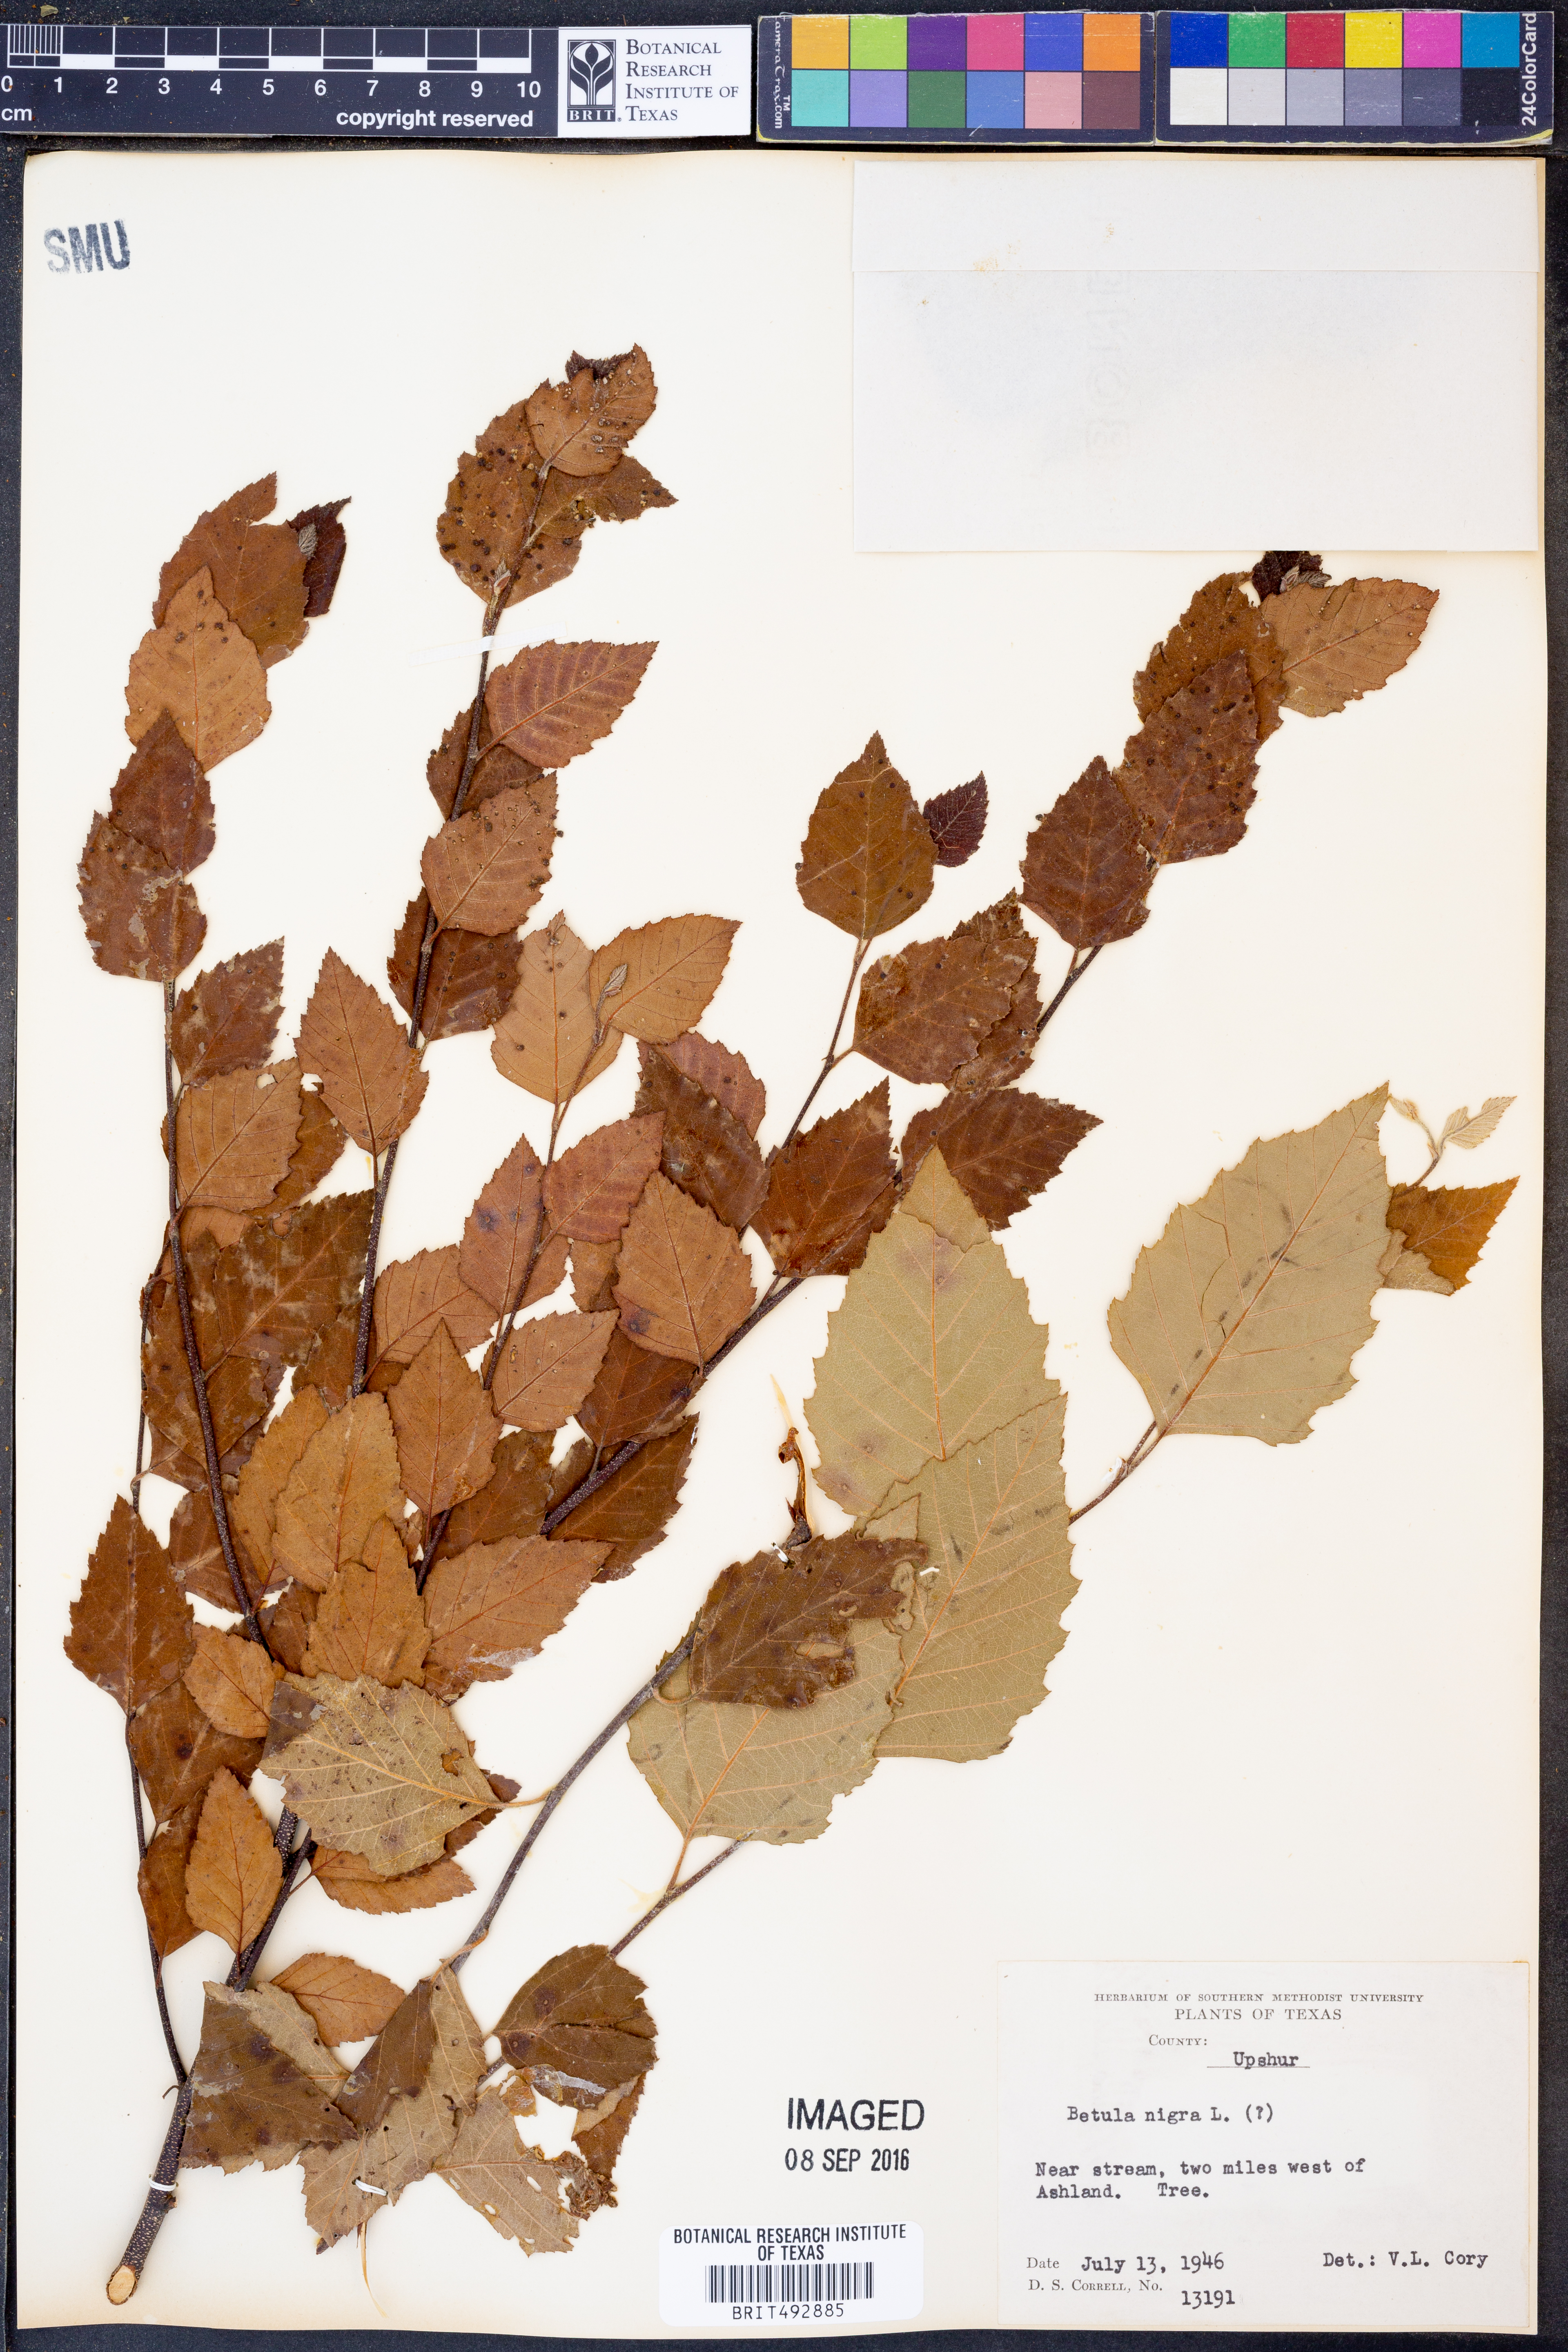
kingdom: Plantae
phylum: Tracheophyta
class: Magnoliopsida
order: Fagales
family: Betulaceae
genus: Betula
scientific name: Betula nigra
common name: Black birch
